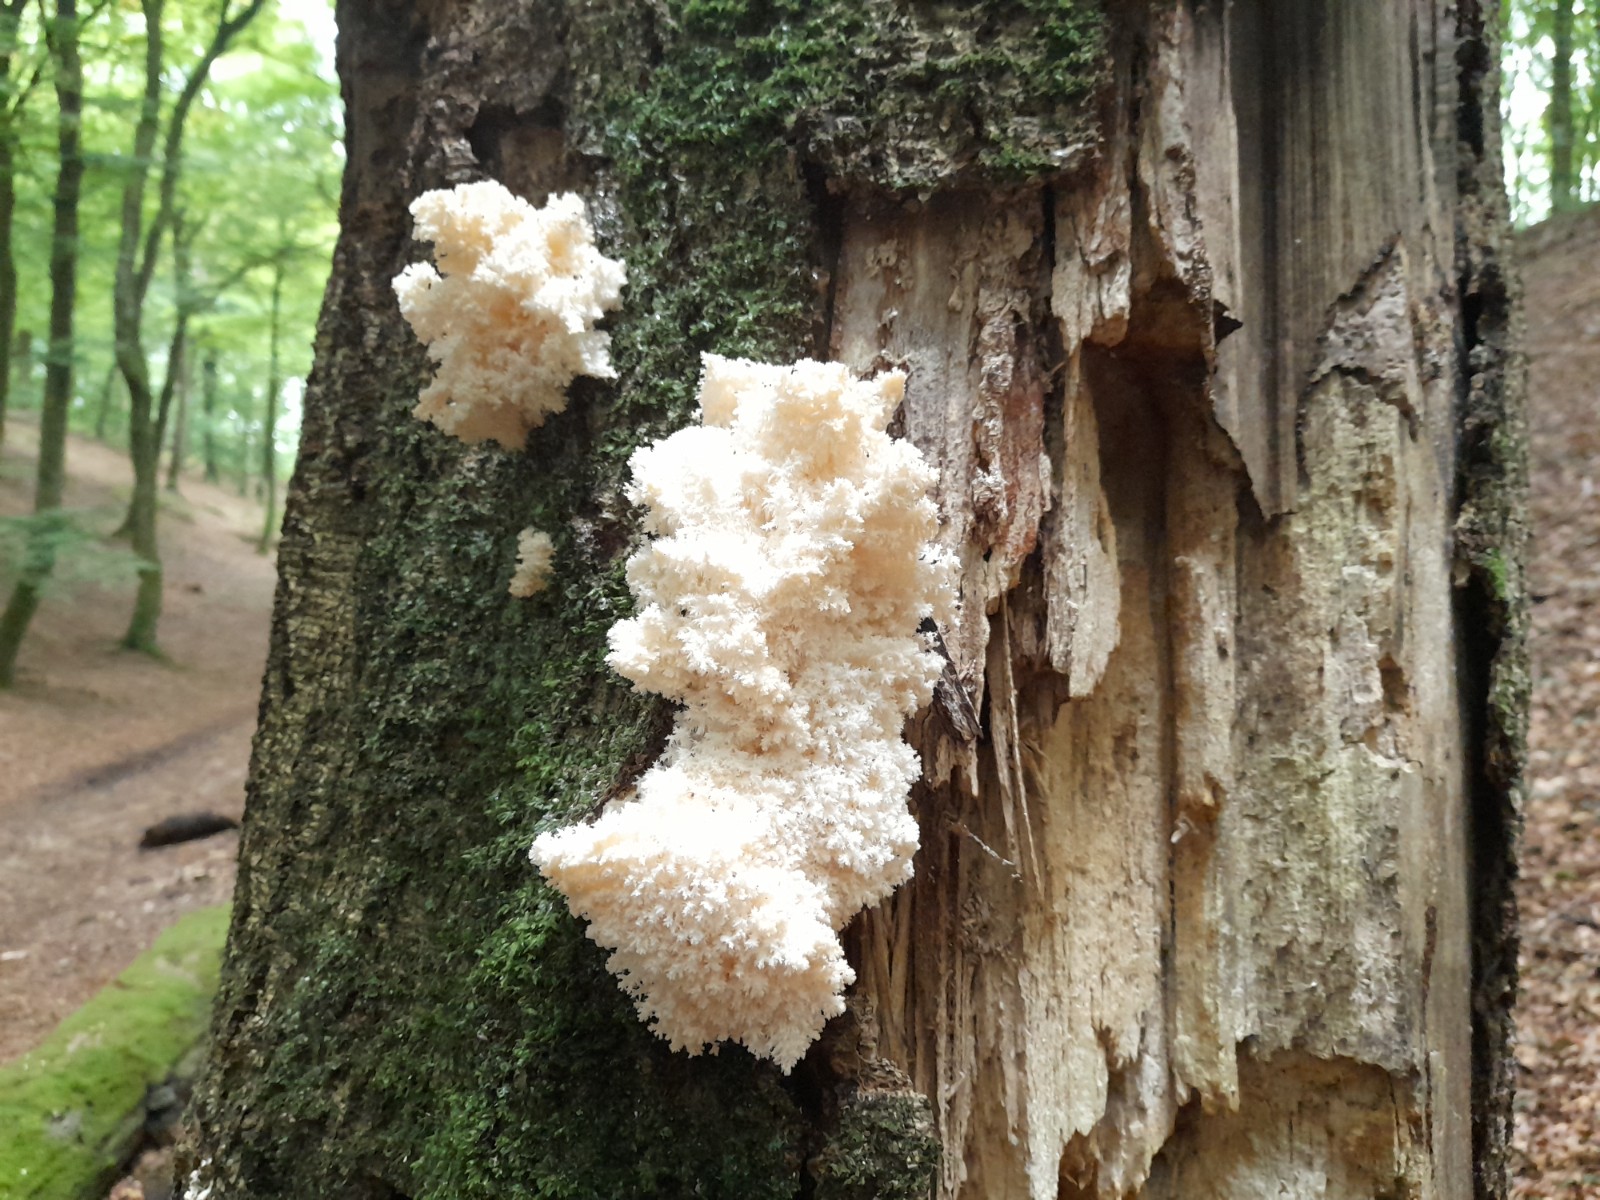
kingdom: Fungi
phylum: Basidiomycota
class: Agaricomycetes
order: Russulales
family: Hericiaceae
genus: Hericium
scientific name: Hericium coralloides
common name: koralpigsvamp
